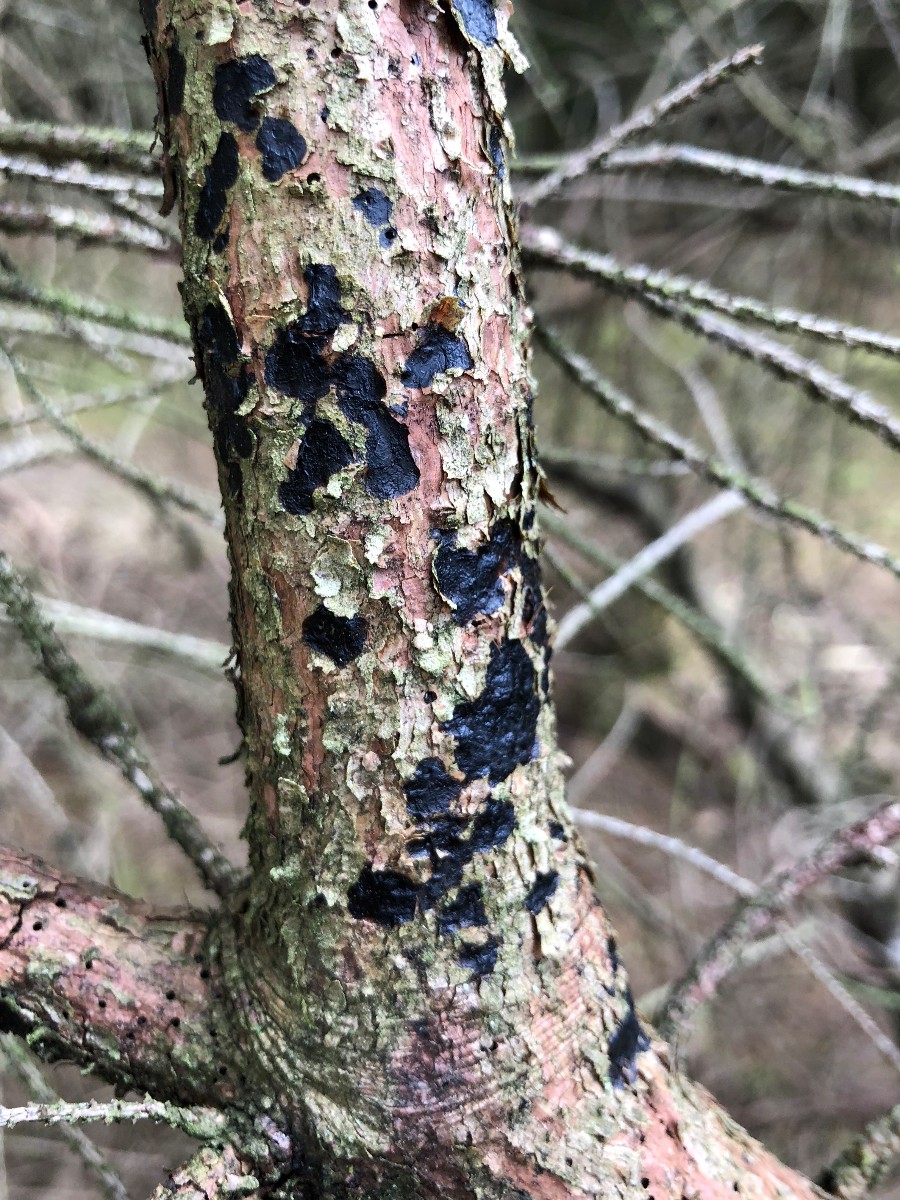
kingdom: Fungi
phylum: Basidiomycota
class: Agaricomycetes
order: Auriculariales
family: Auriculariaceae
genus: Exidia
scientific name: Exidia pithya
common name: gran-bævretop
